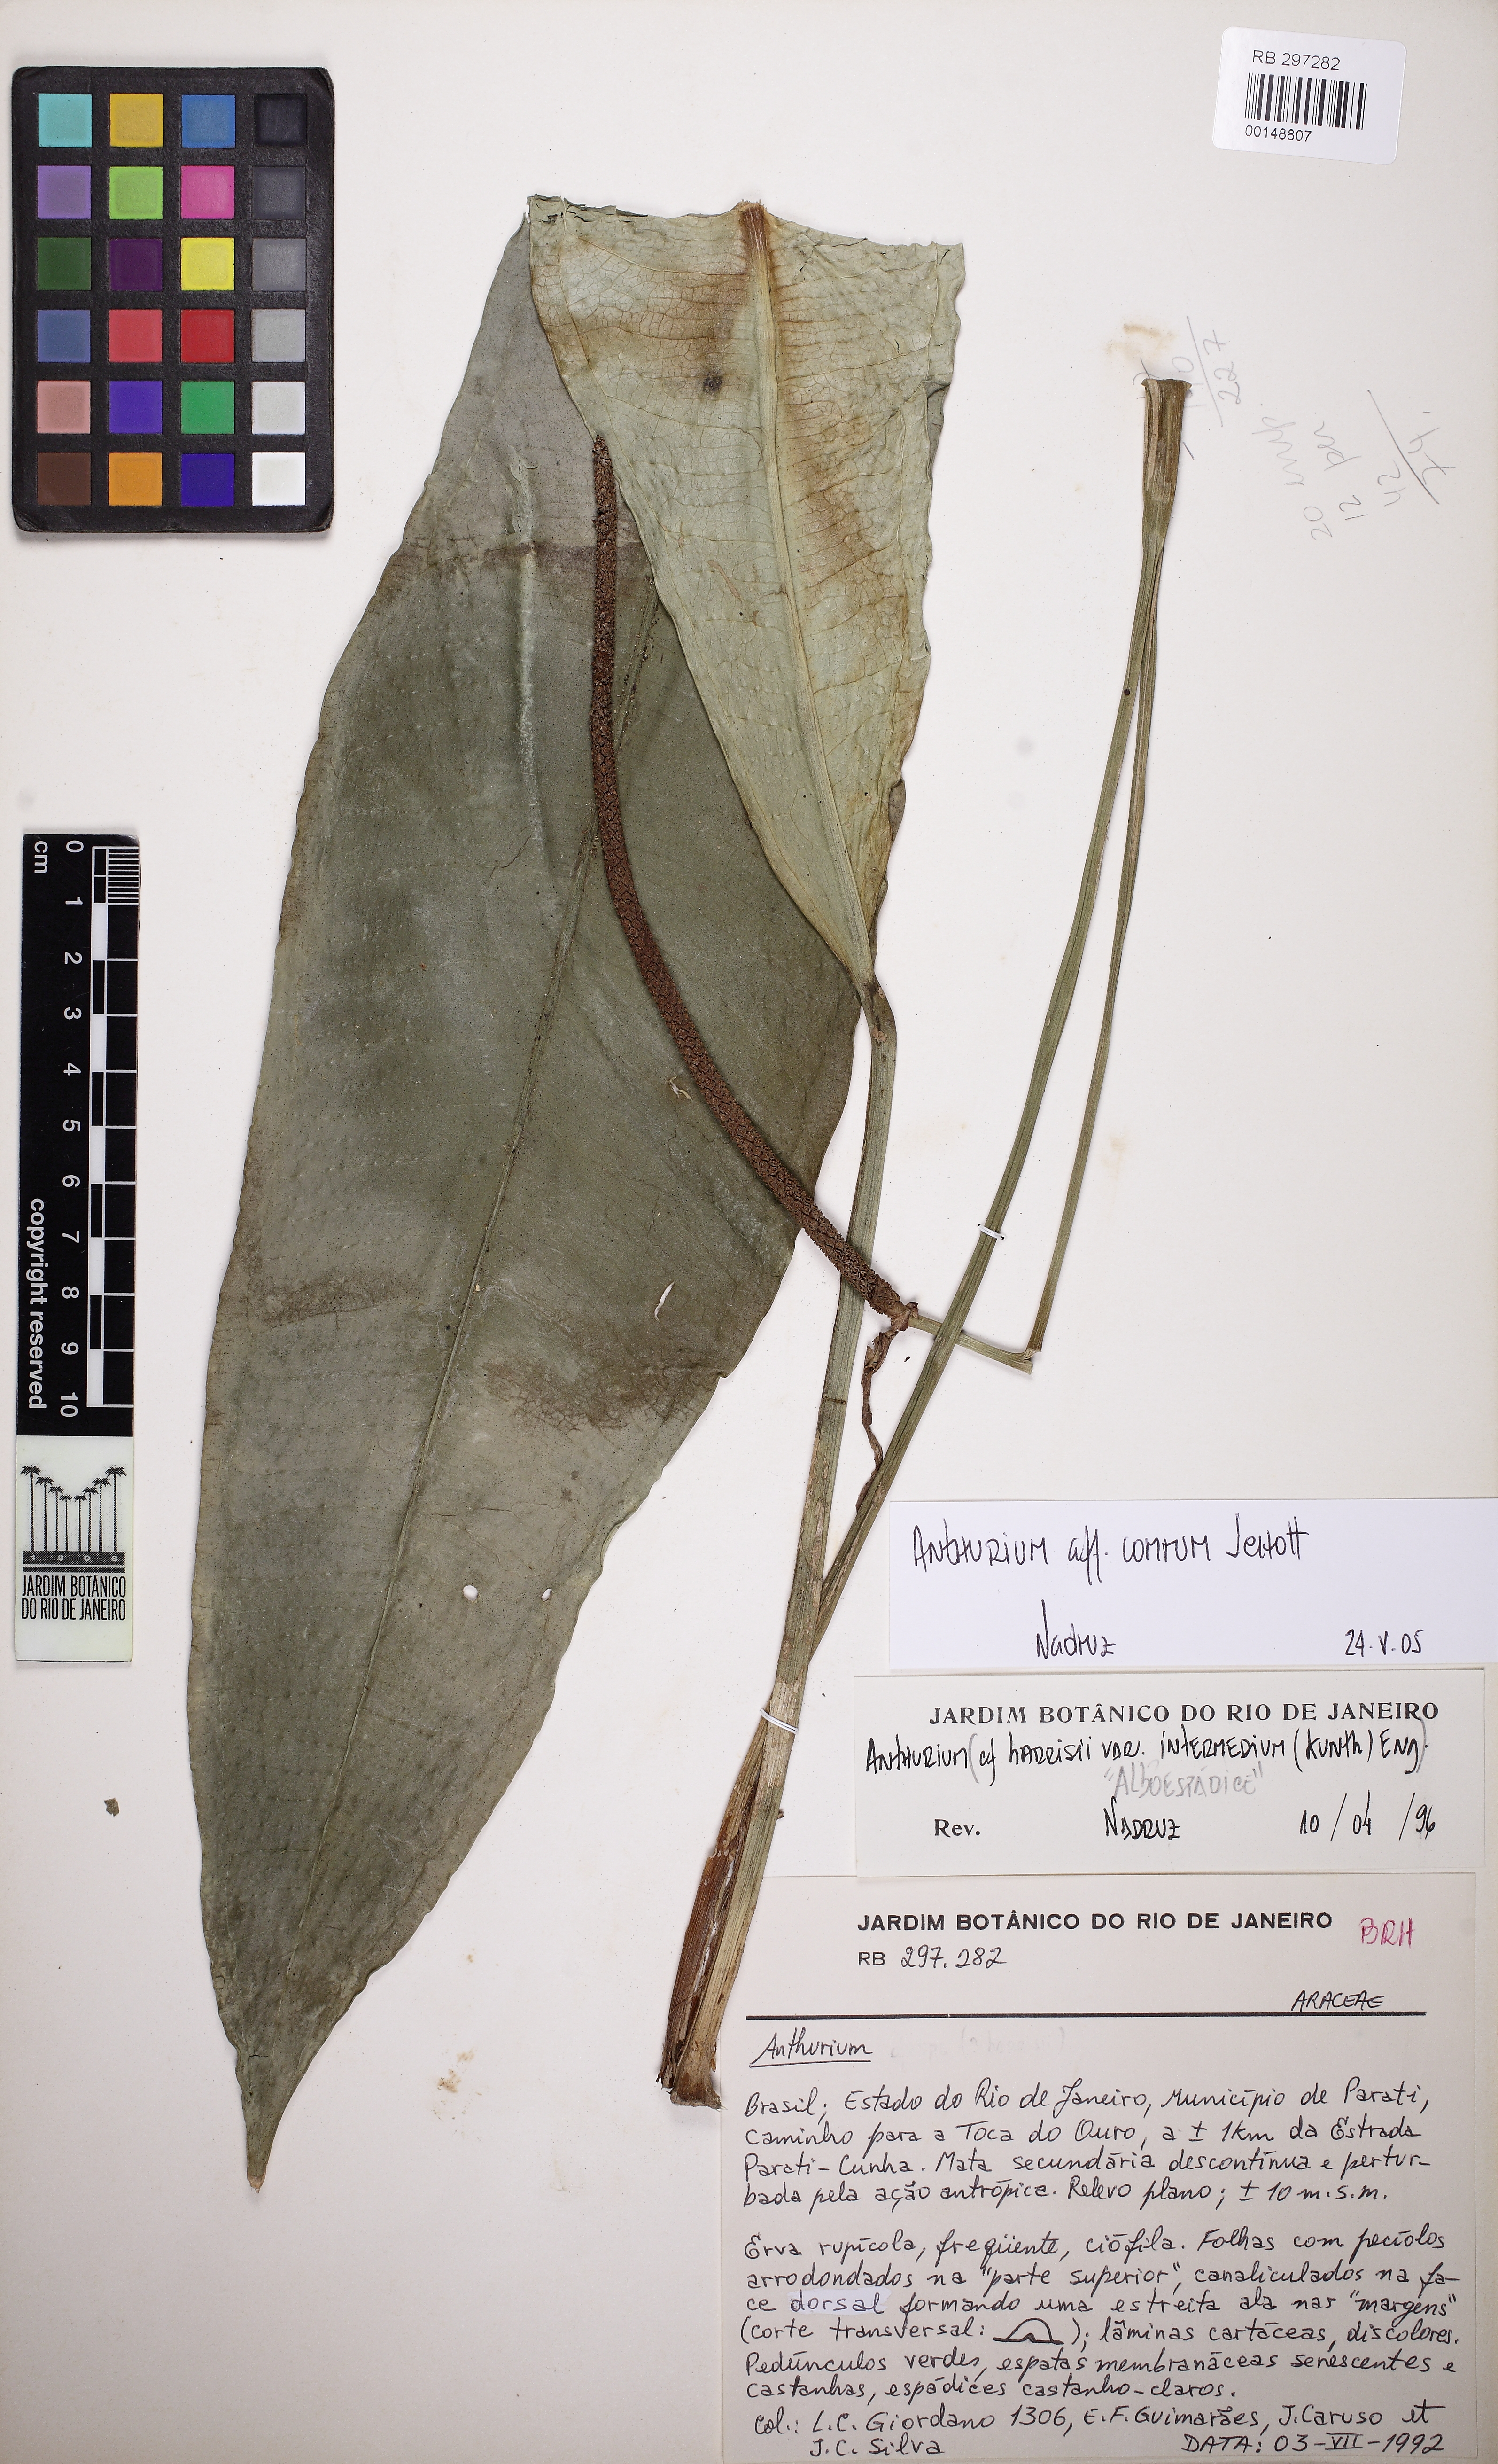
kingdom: Plantae
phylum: Tracheophyta
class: Liliopsida
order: Alismatales
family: Araceae
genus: Anthurium
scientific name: Anthurium comtum
